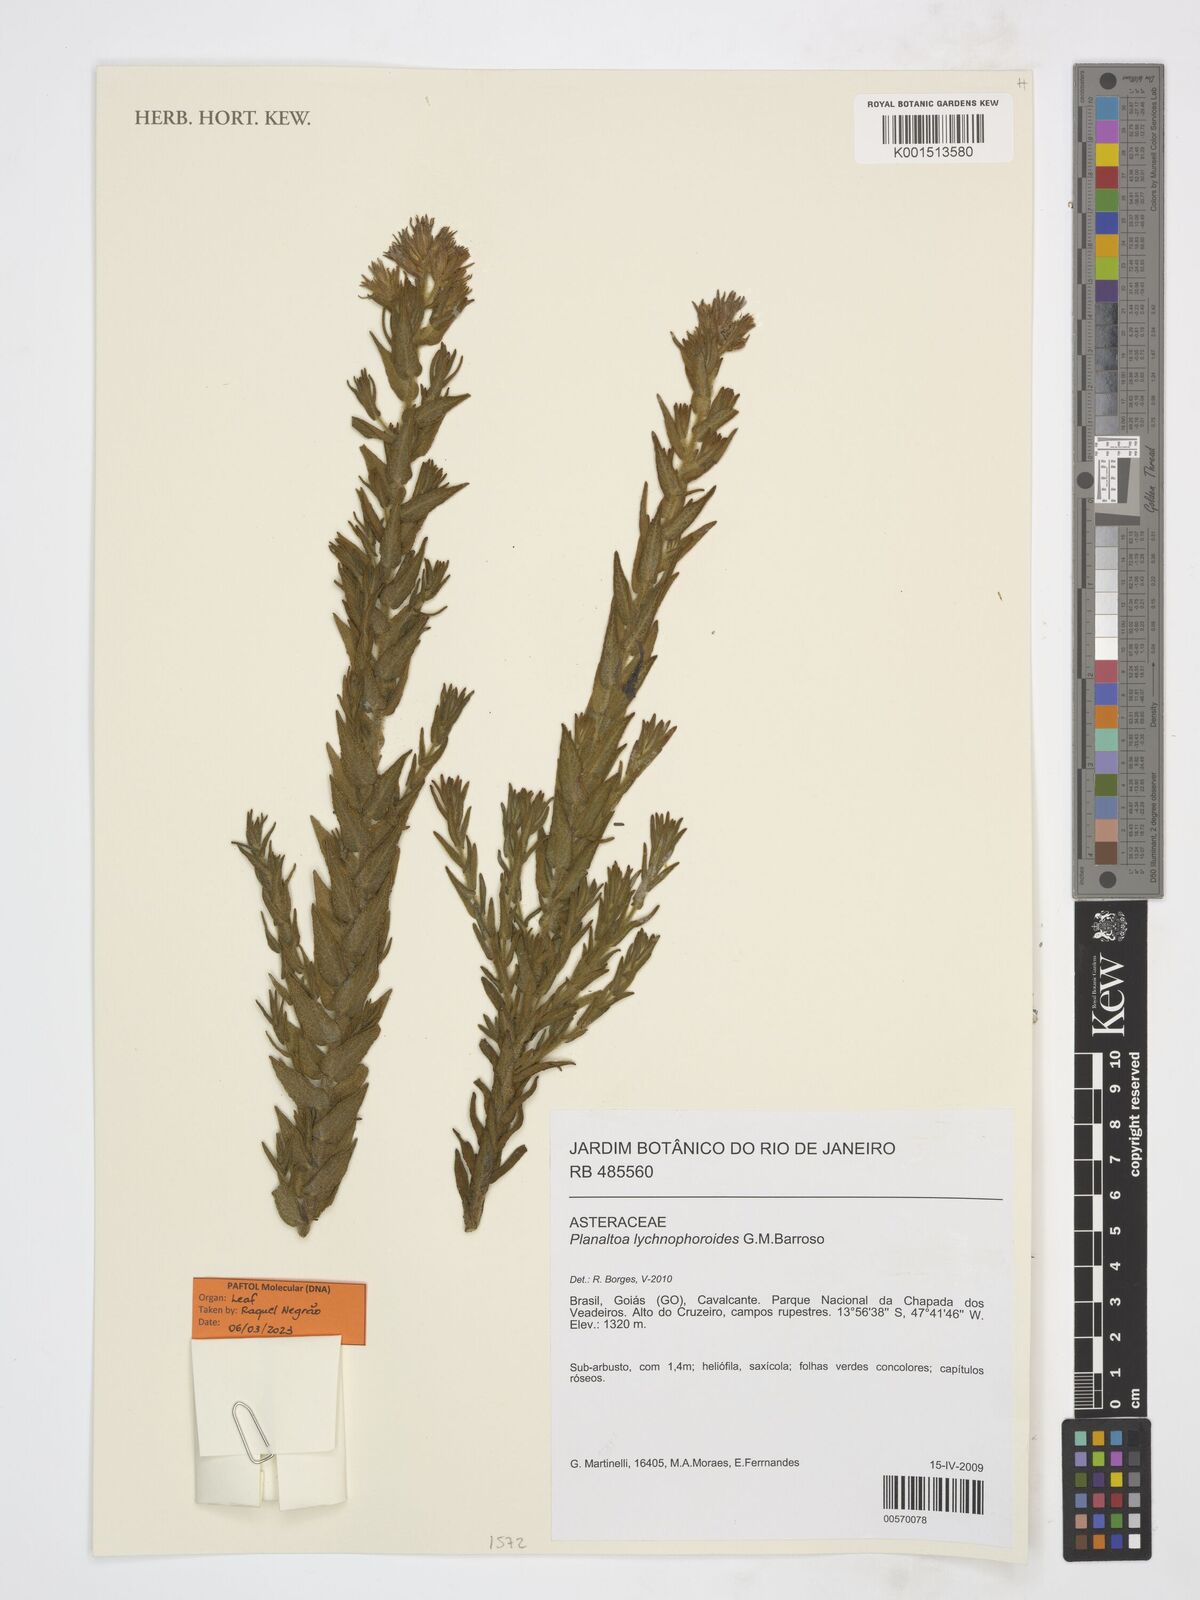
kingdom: Plantae
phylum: Tracheophyta
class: Magnoliopsida
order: Asterales
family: Asteraceae
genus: Planaltoa
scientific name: Planaltoa lychnophoroides
